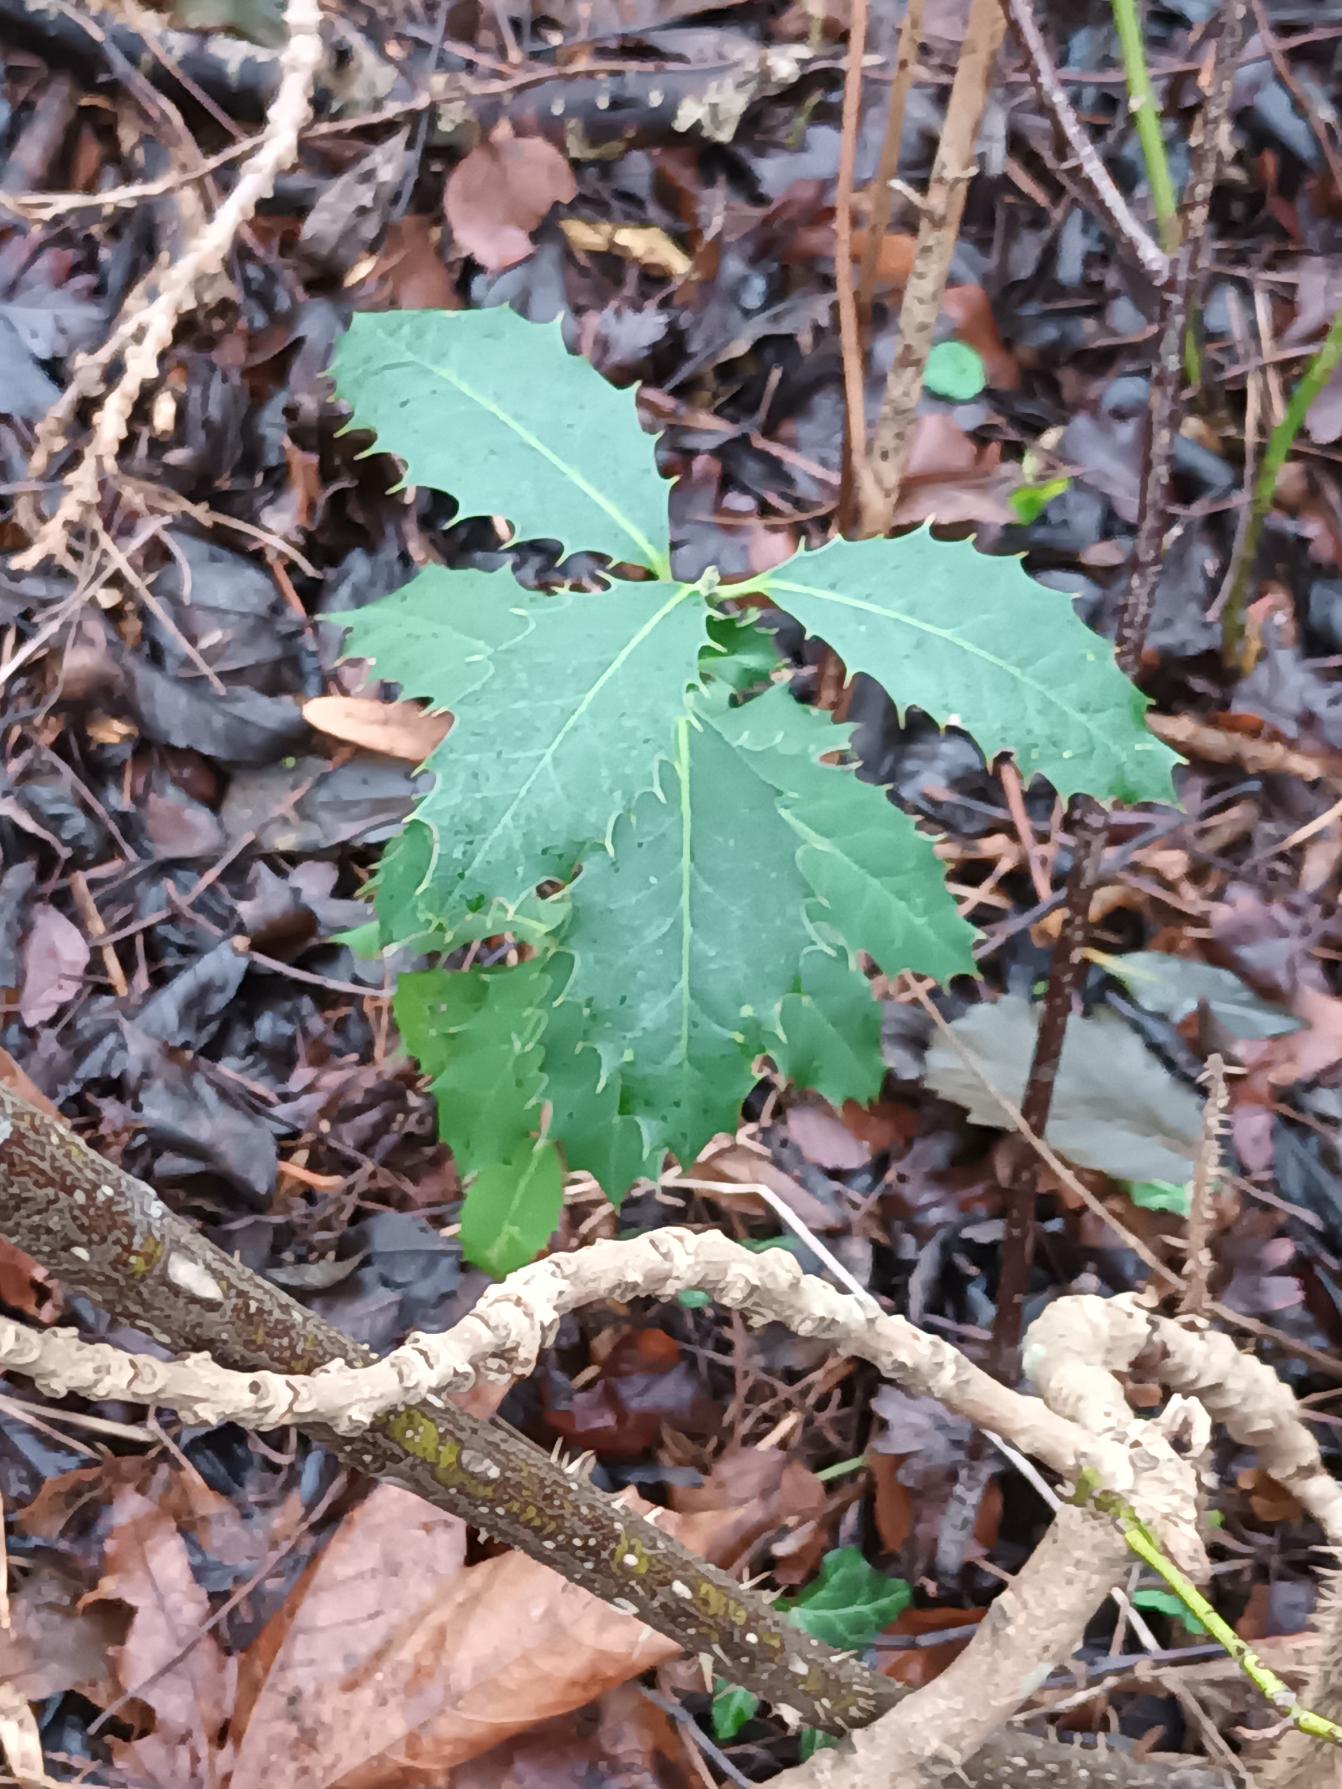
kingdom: Plantae
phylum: Tracheophyta
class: Magnoliopsida
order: Aquifoliales
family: Aquifoliaceae
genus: Ilex
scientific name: Ilex altaclerensis
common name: Storbladet kristtorn
